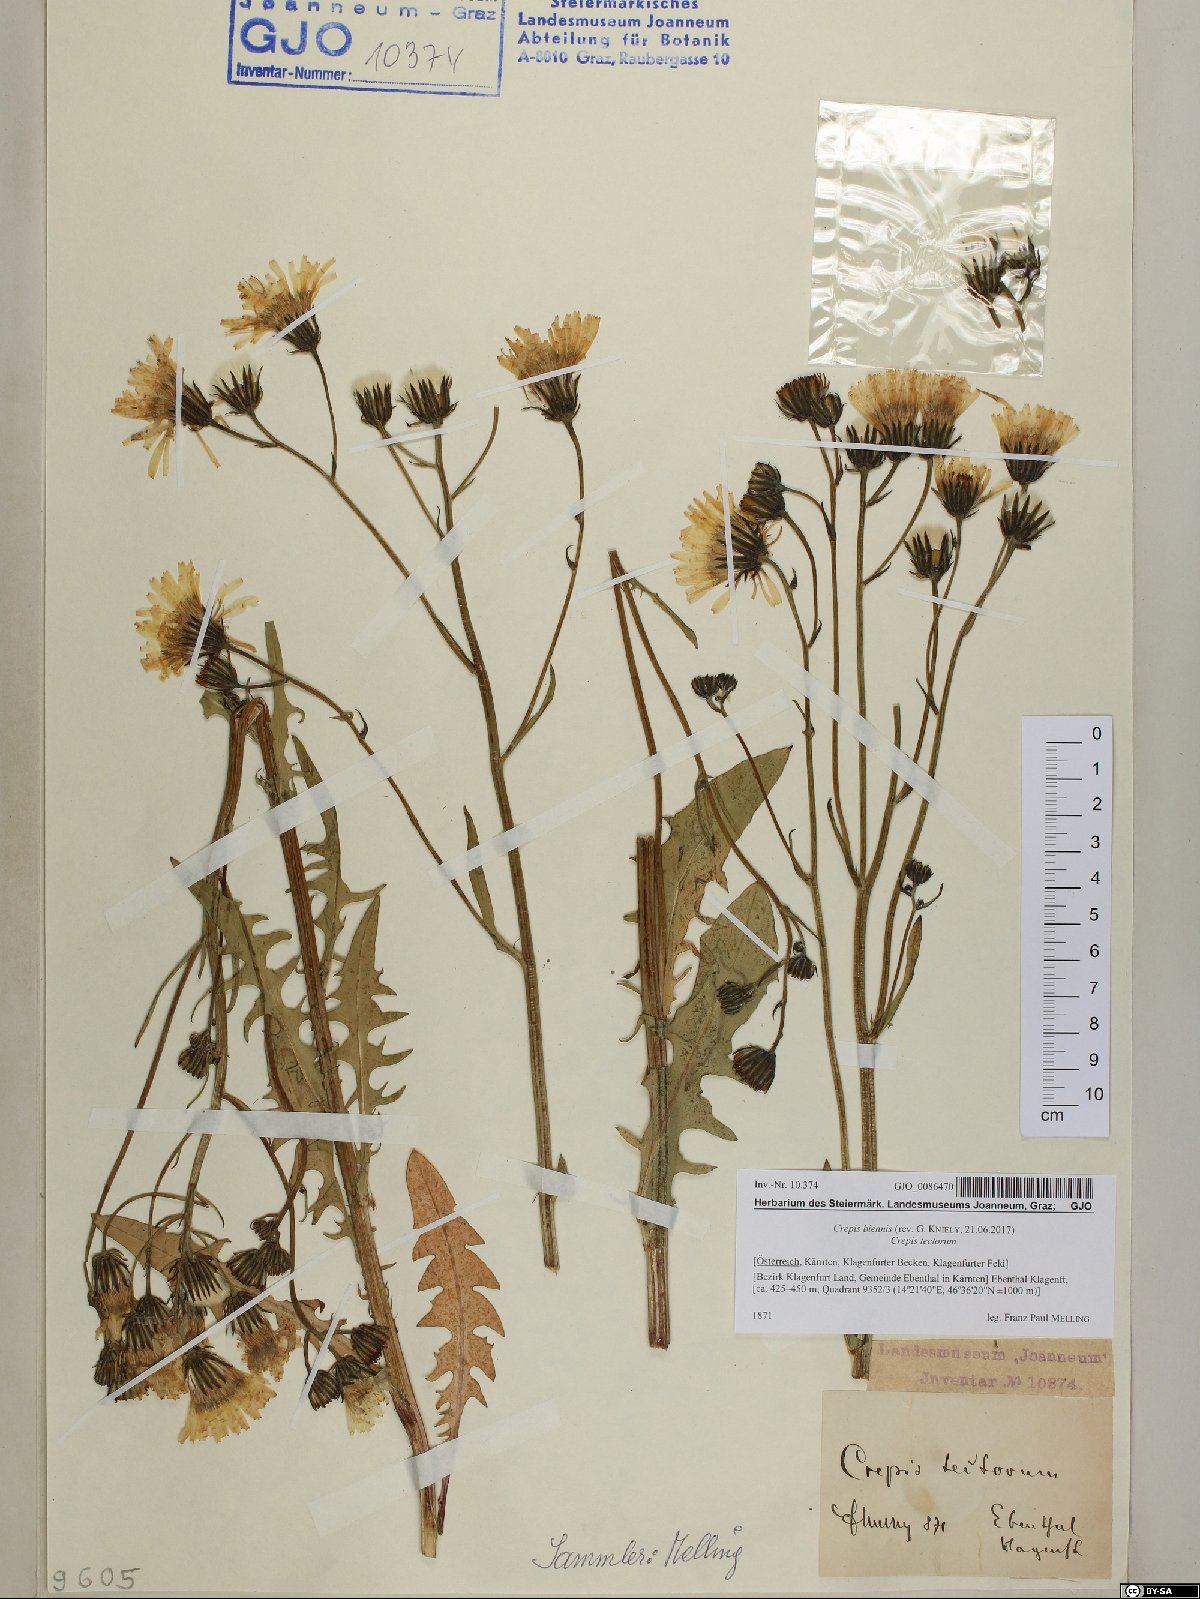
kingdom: Plantae
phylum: Tracheophyta
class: Magnoliopsida
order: Asterales
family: Asteraceae
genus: Crepis
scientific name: Crepis biennis
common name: Rough hawk's-beard
